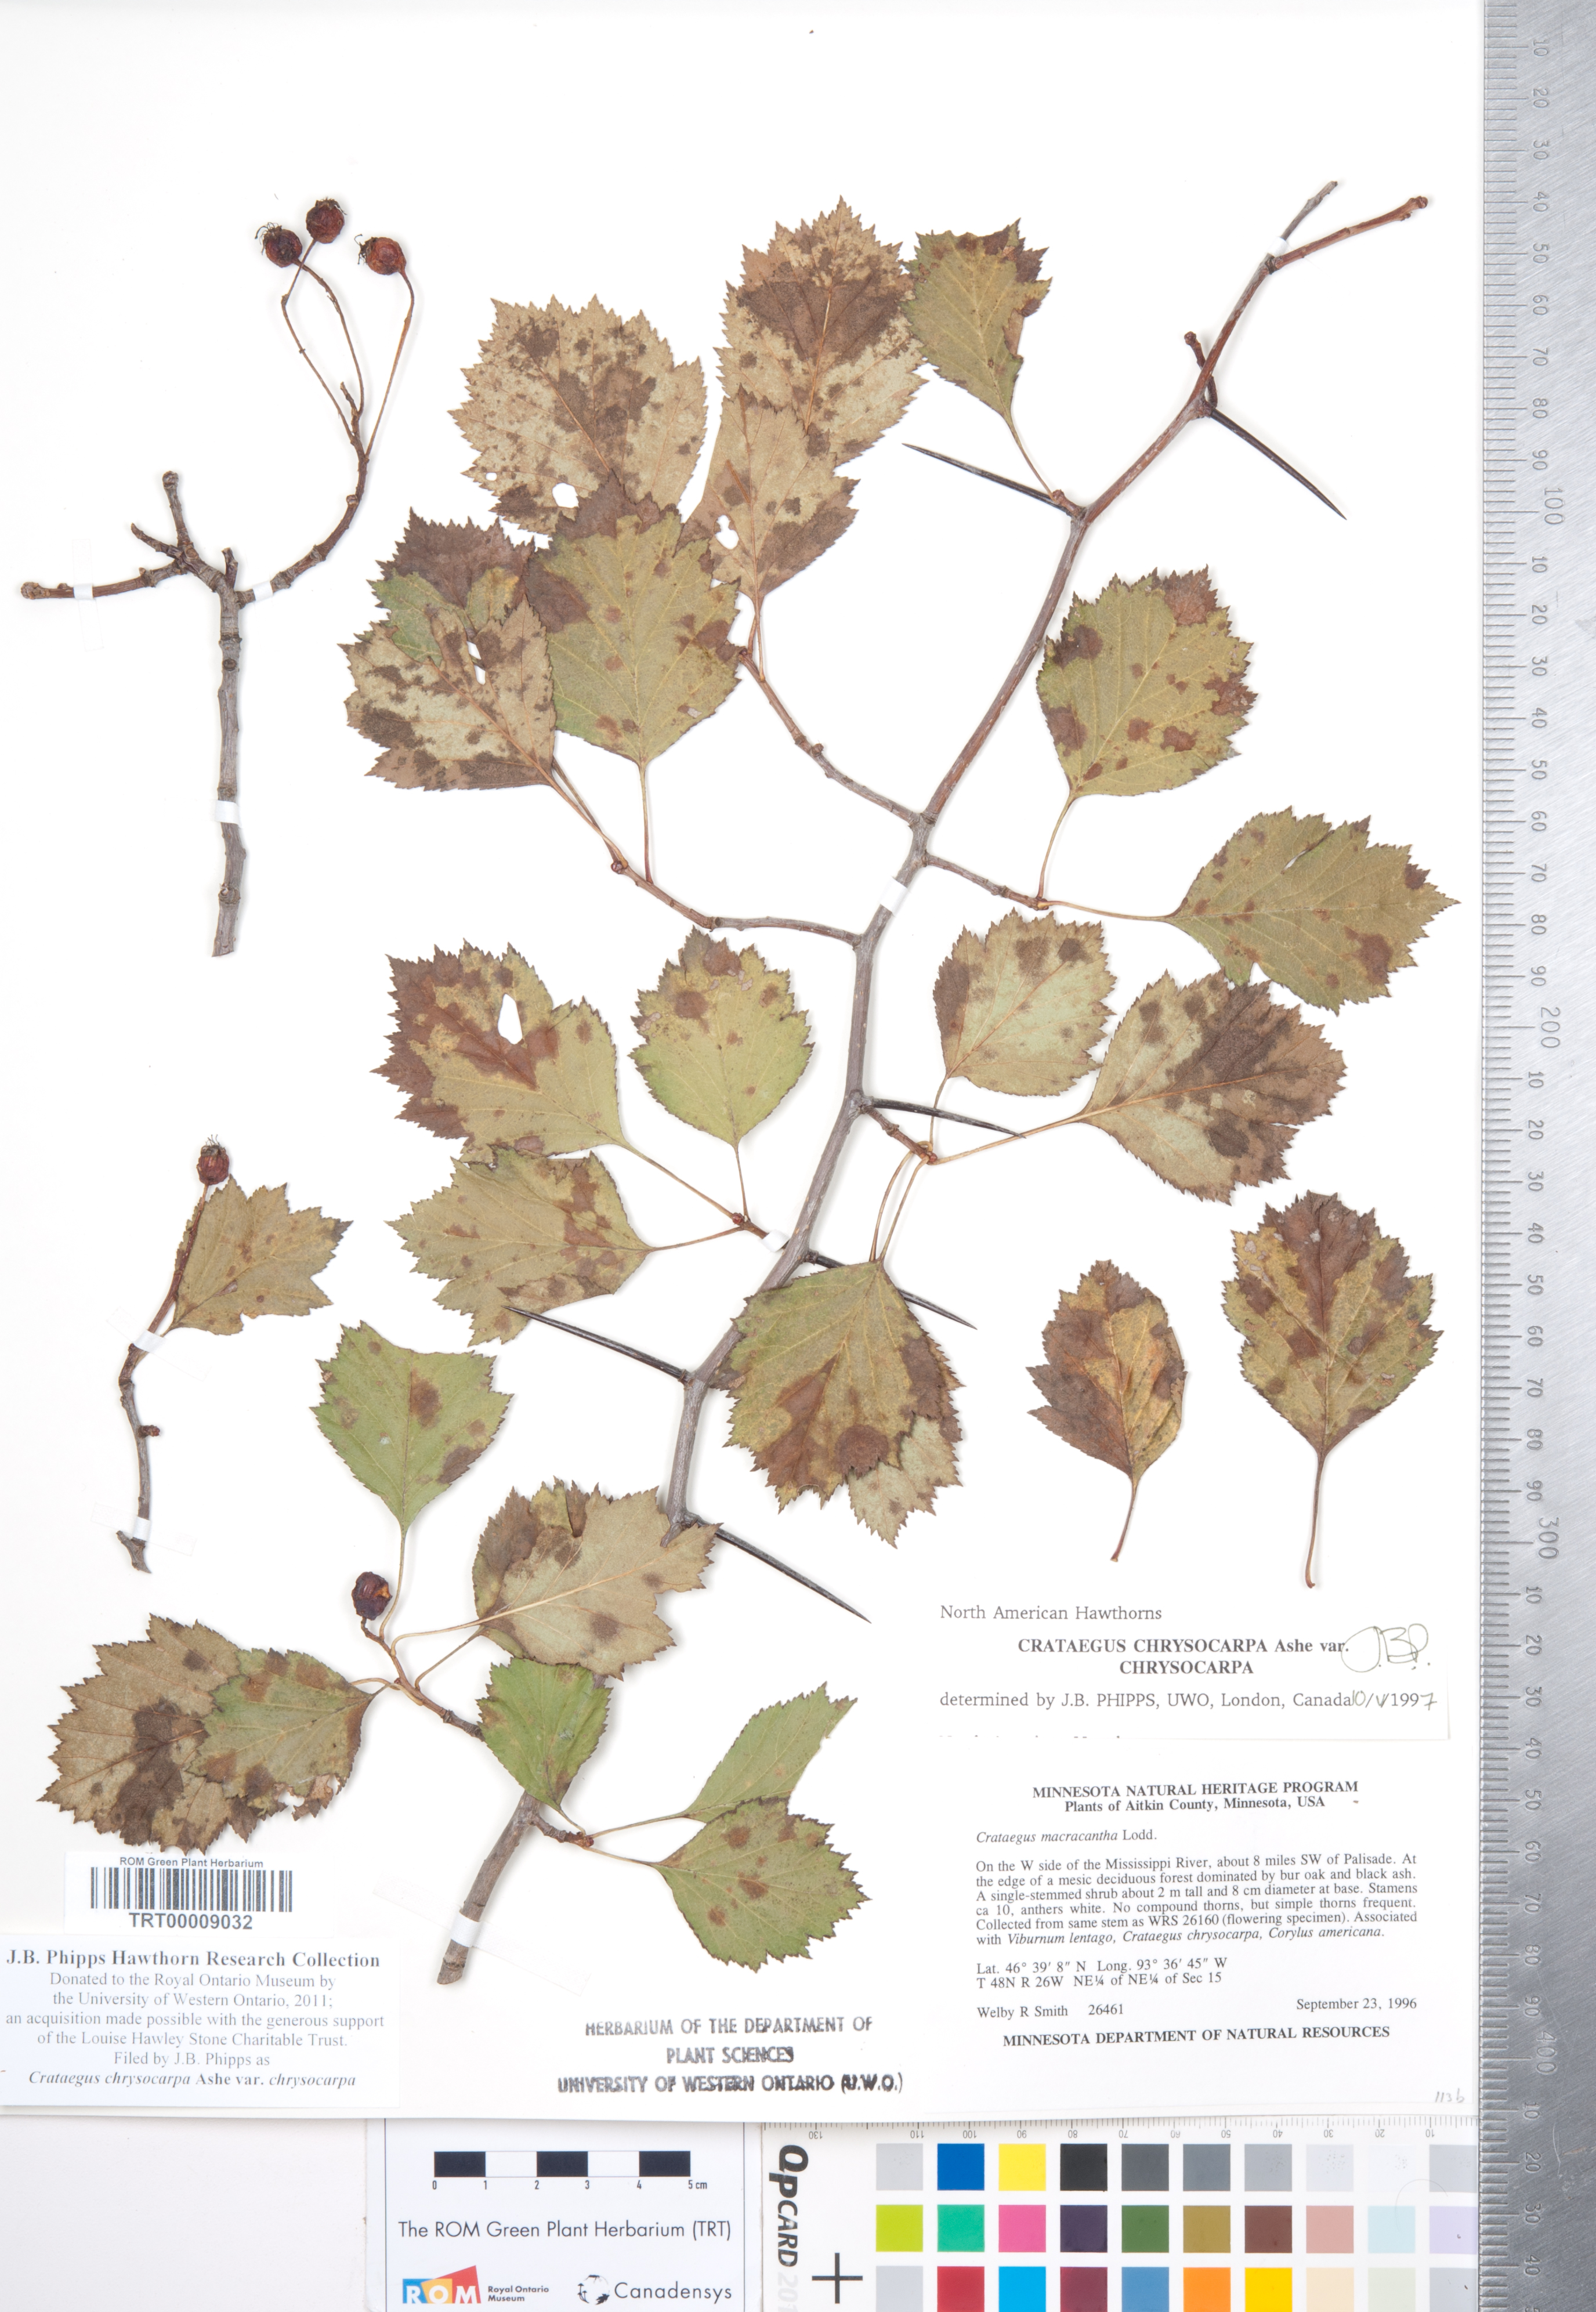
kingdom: Plantae
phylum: Tracheophyta
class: Magnoliopsida
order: Rosales
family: Rosaceae
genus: Crataegus
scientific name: Crataegus chrysocarpa
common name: Fire-berry hawthorn
